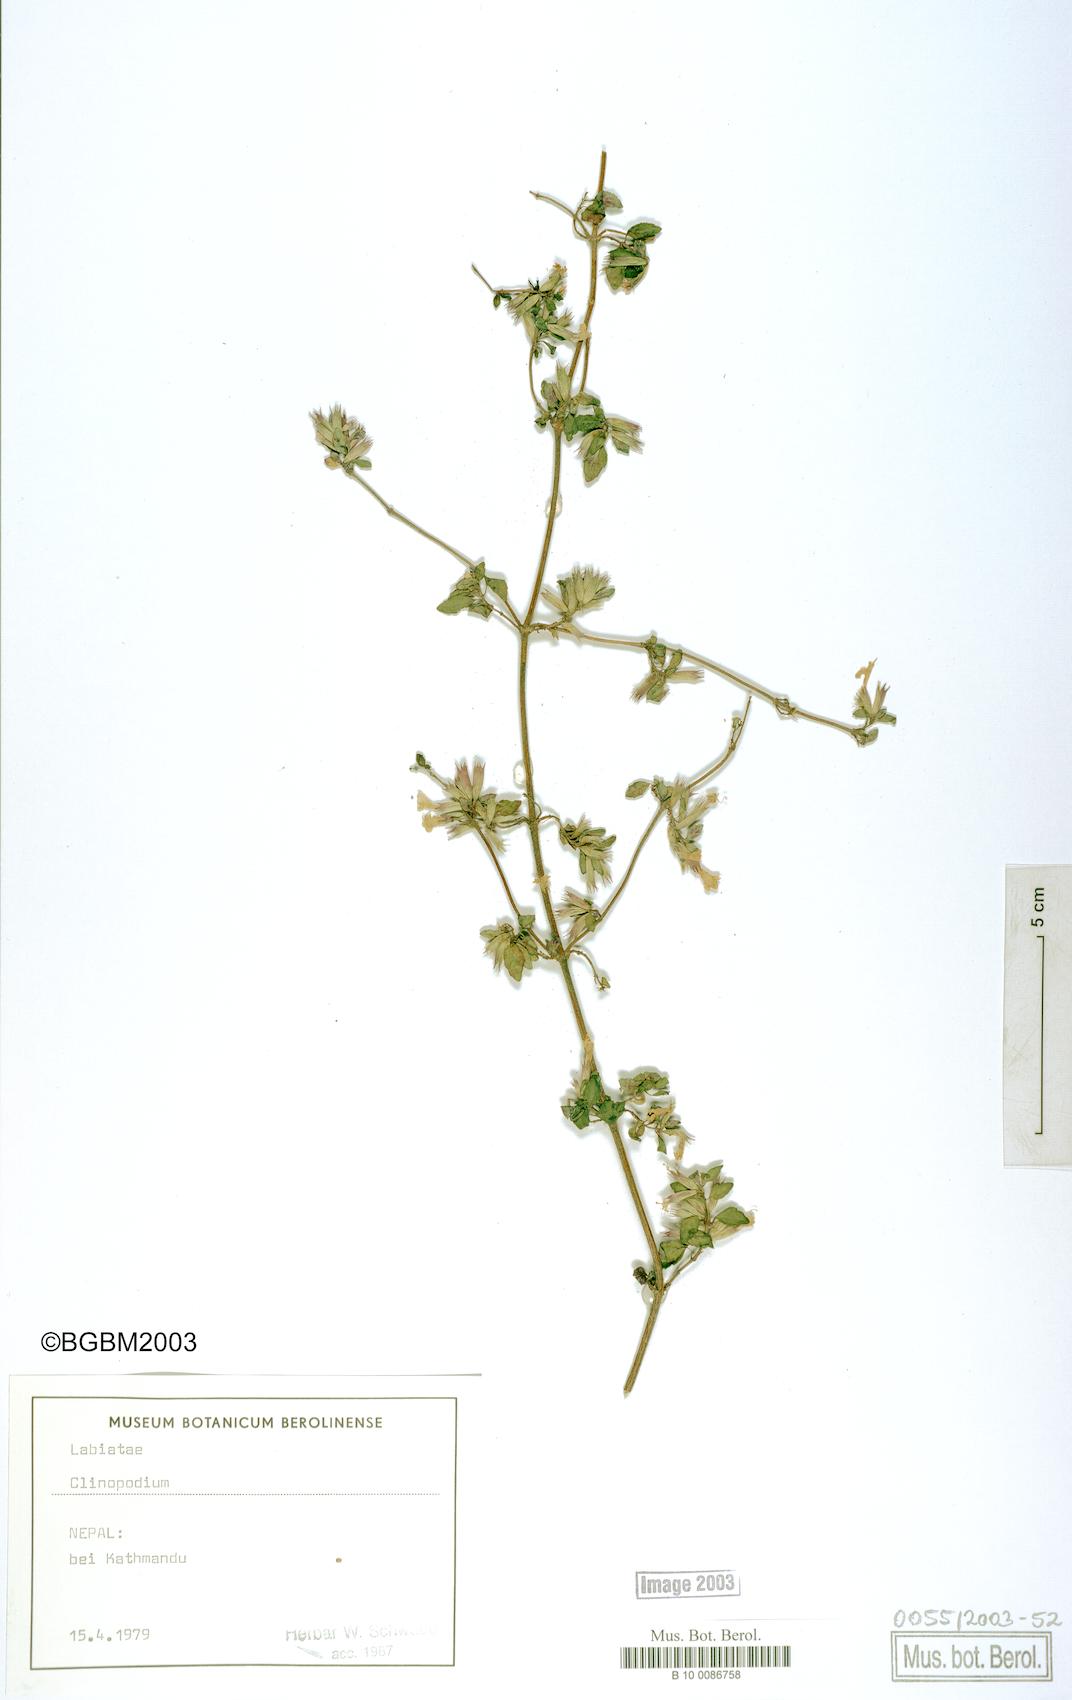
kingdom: Plantae
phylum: Tracheophyta
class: Magnoliopsida
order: Lamiales
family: Lamiaceae
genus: Clinopodium
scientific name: Clinopodium
